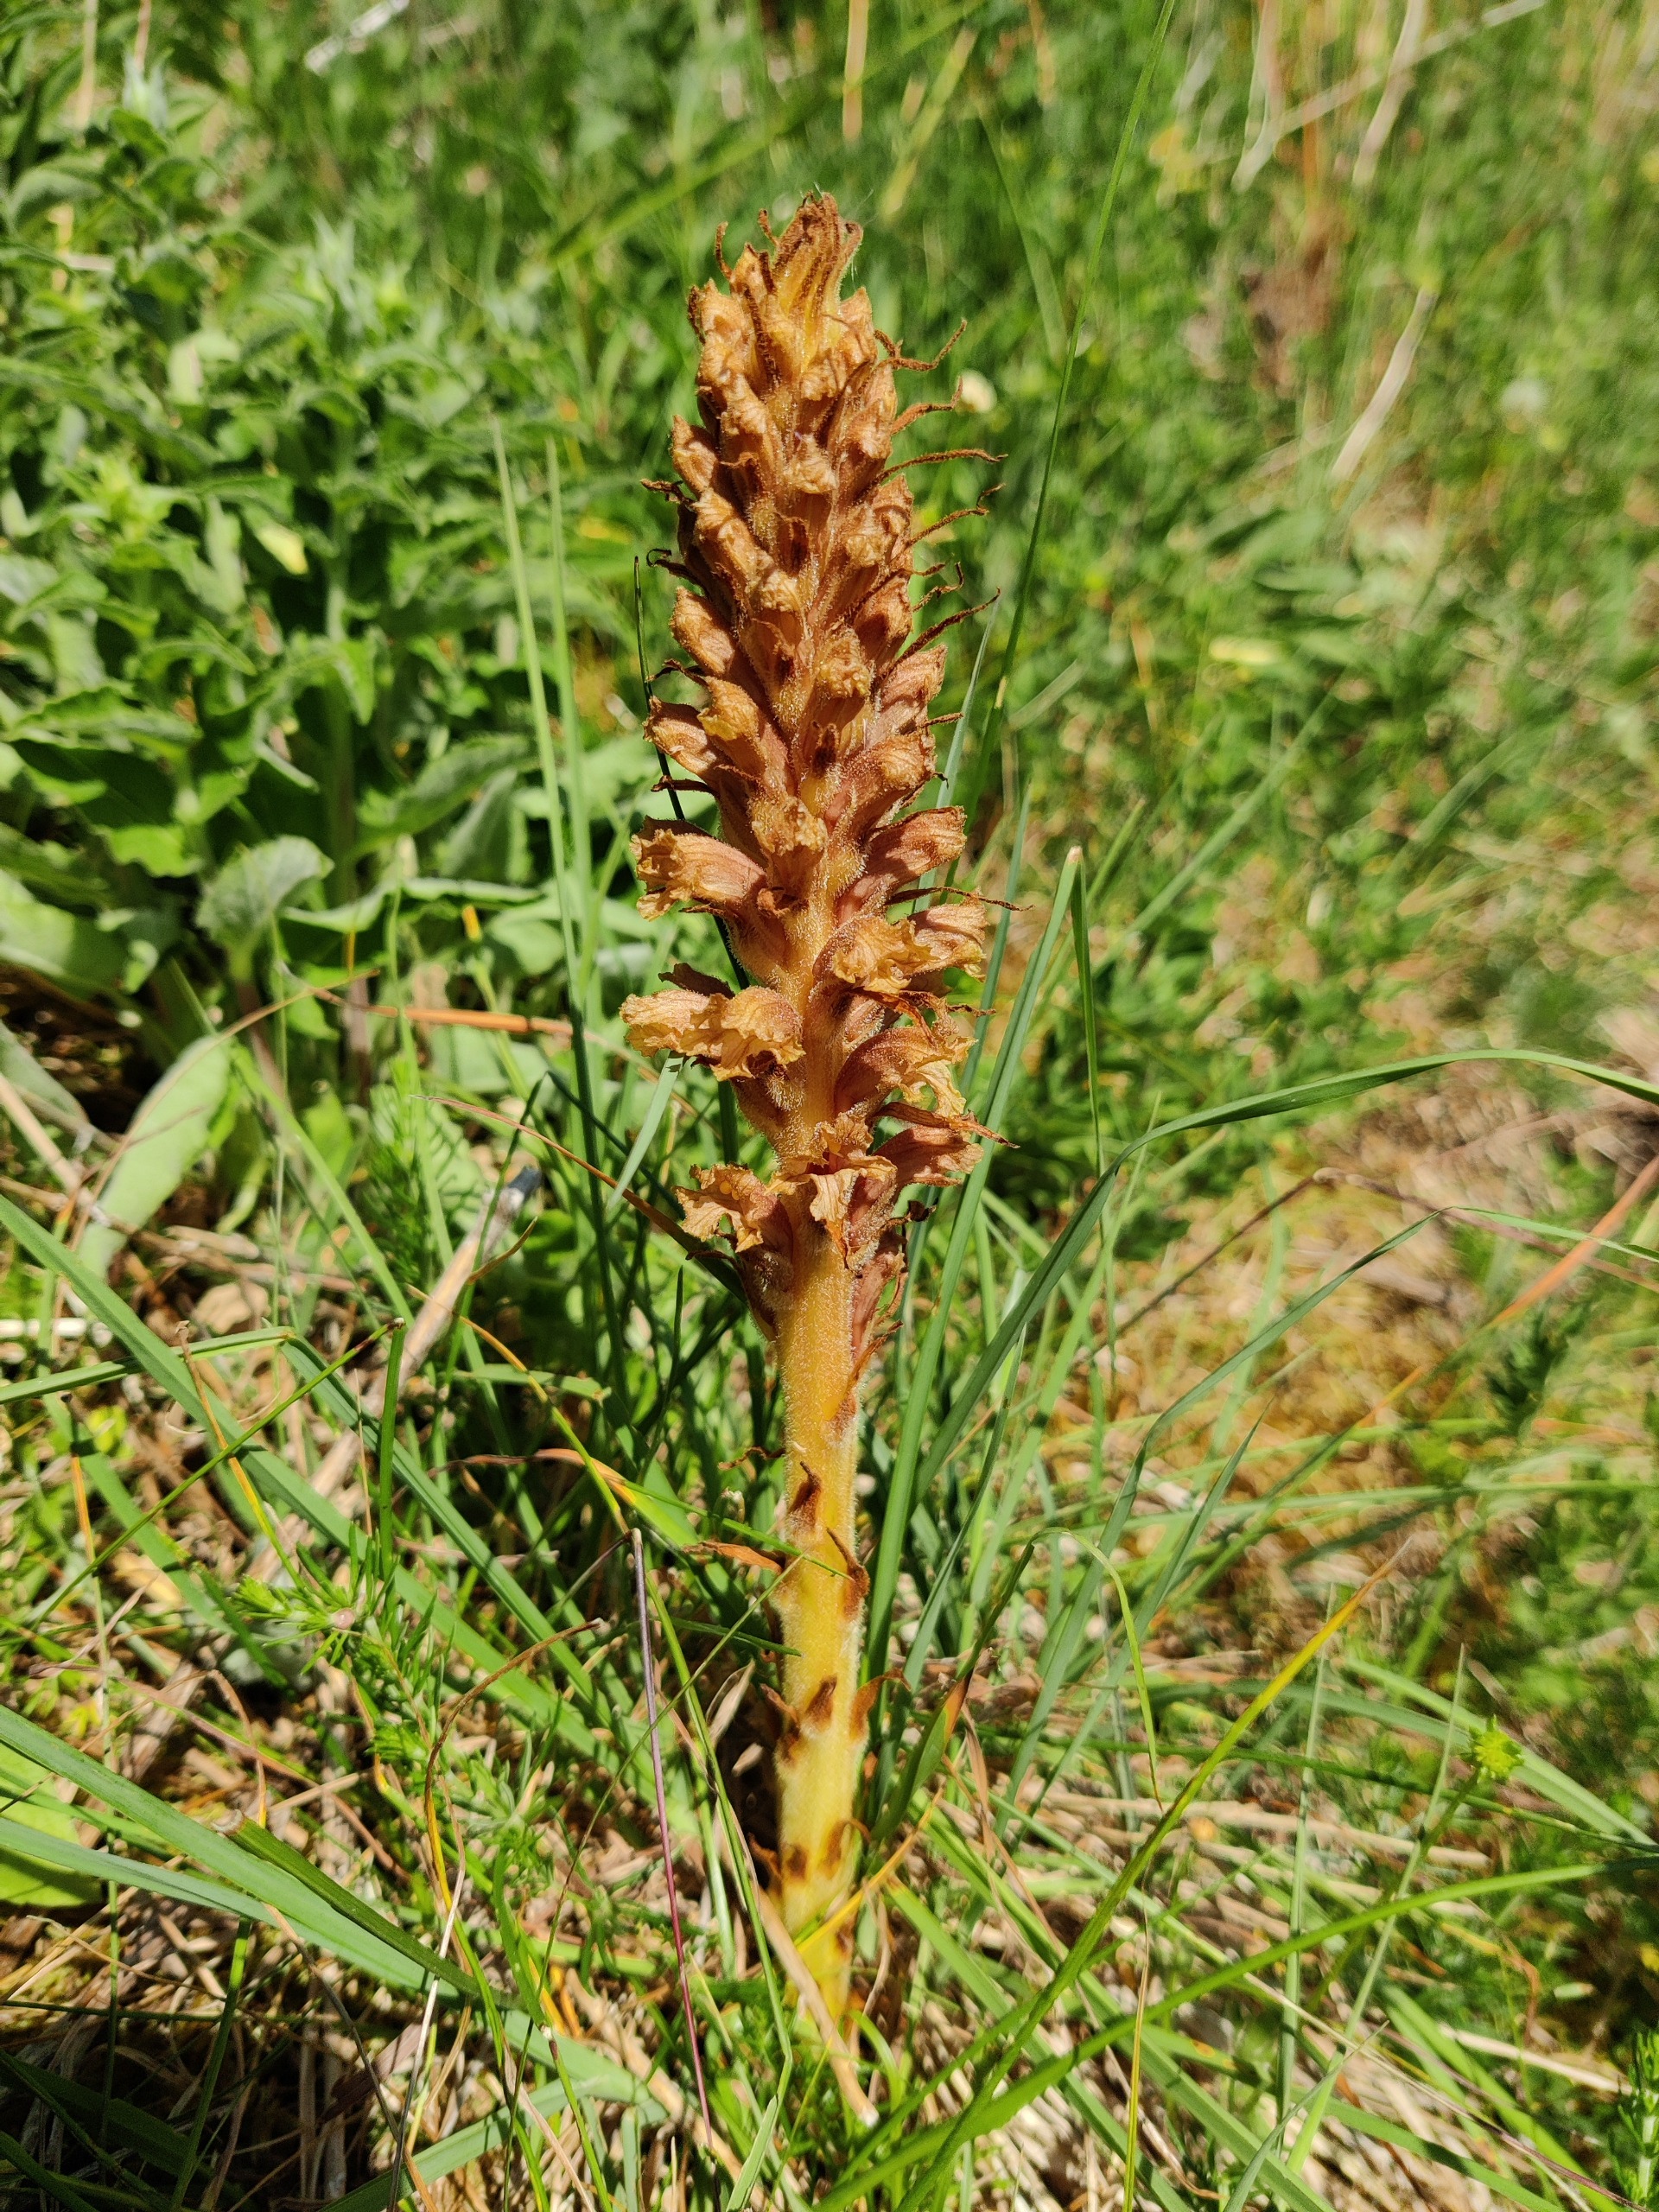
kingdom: Plantae
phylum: Tracheophyta
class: Magnoliopsida
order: Lamiales
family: Orobanchaceae
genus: Orobanche
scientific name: Orobanche elatior
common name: Stor gyvelkvæler
